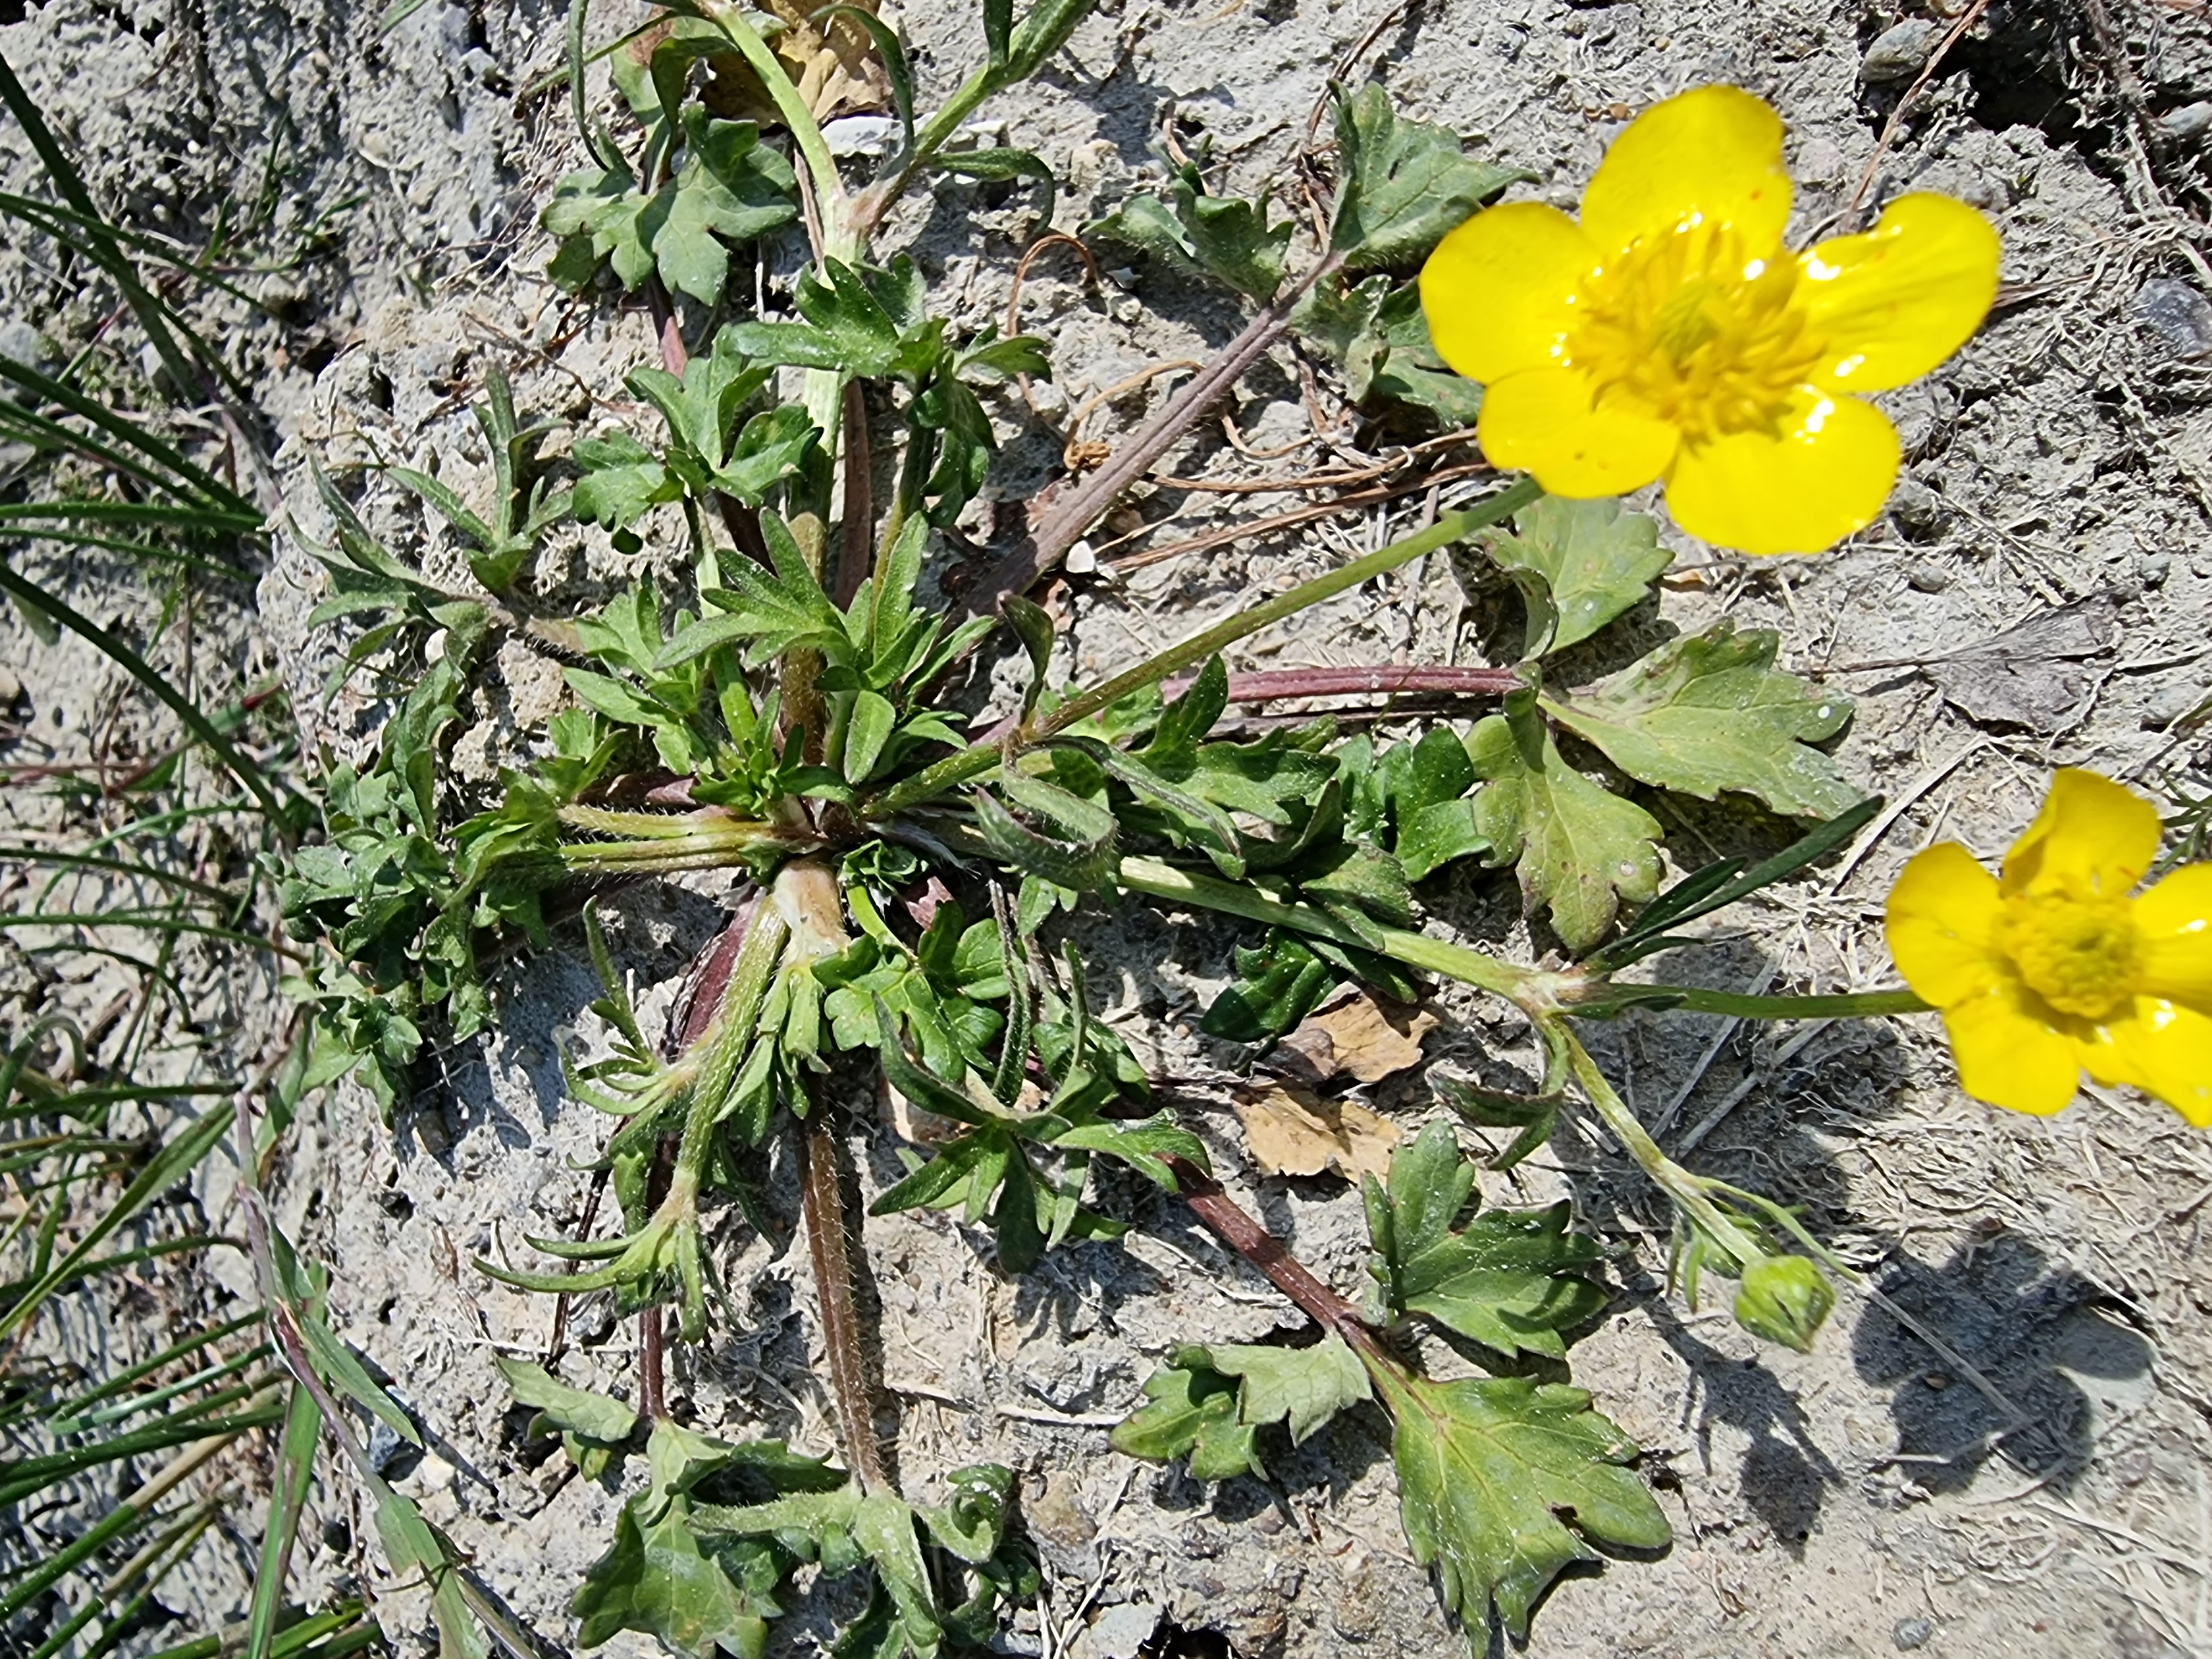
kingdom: Plantae
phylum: Tracheophyta
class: Magnoliopsida
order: Ranunculales
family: Ranunculaceae
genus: Ranunculus
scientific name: Ranunculus sardous
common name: Stivhåret ranunkel
